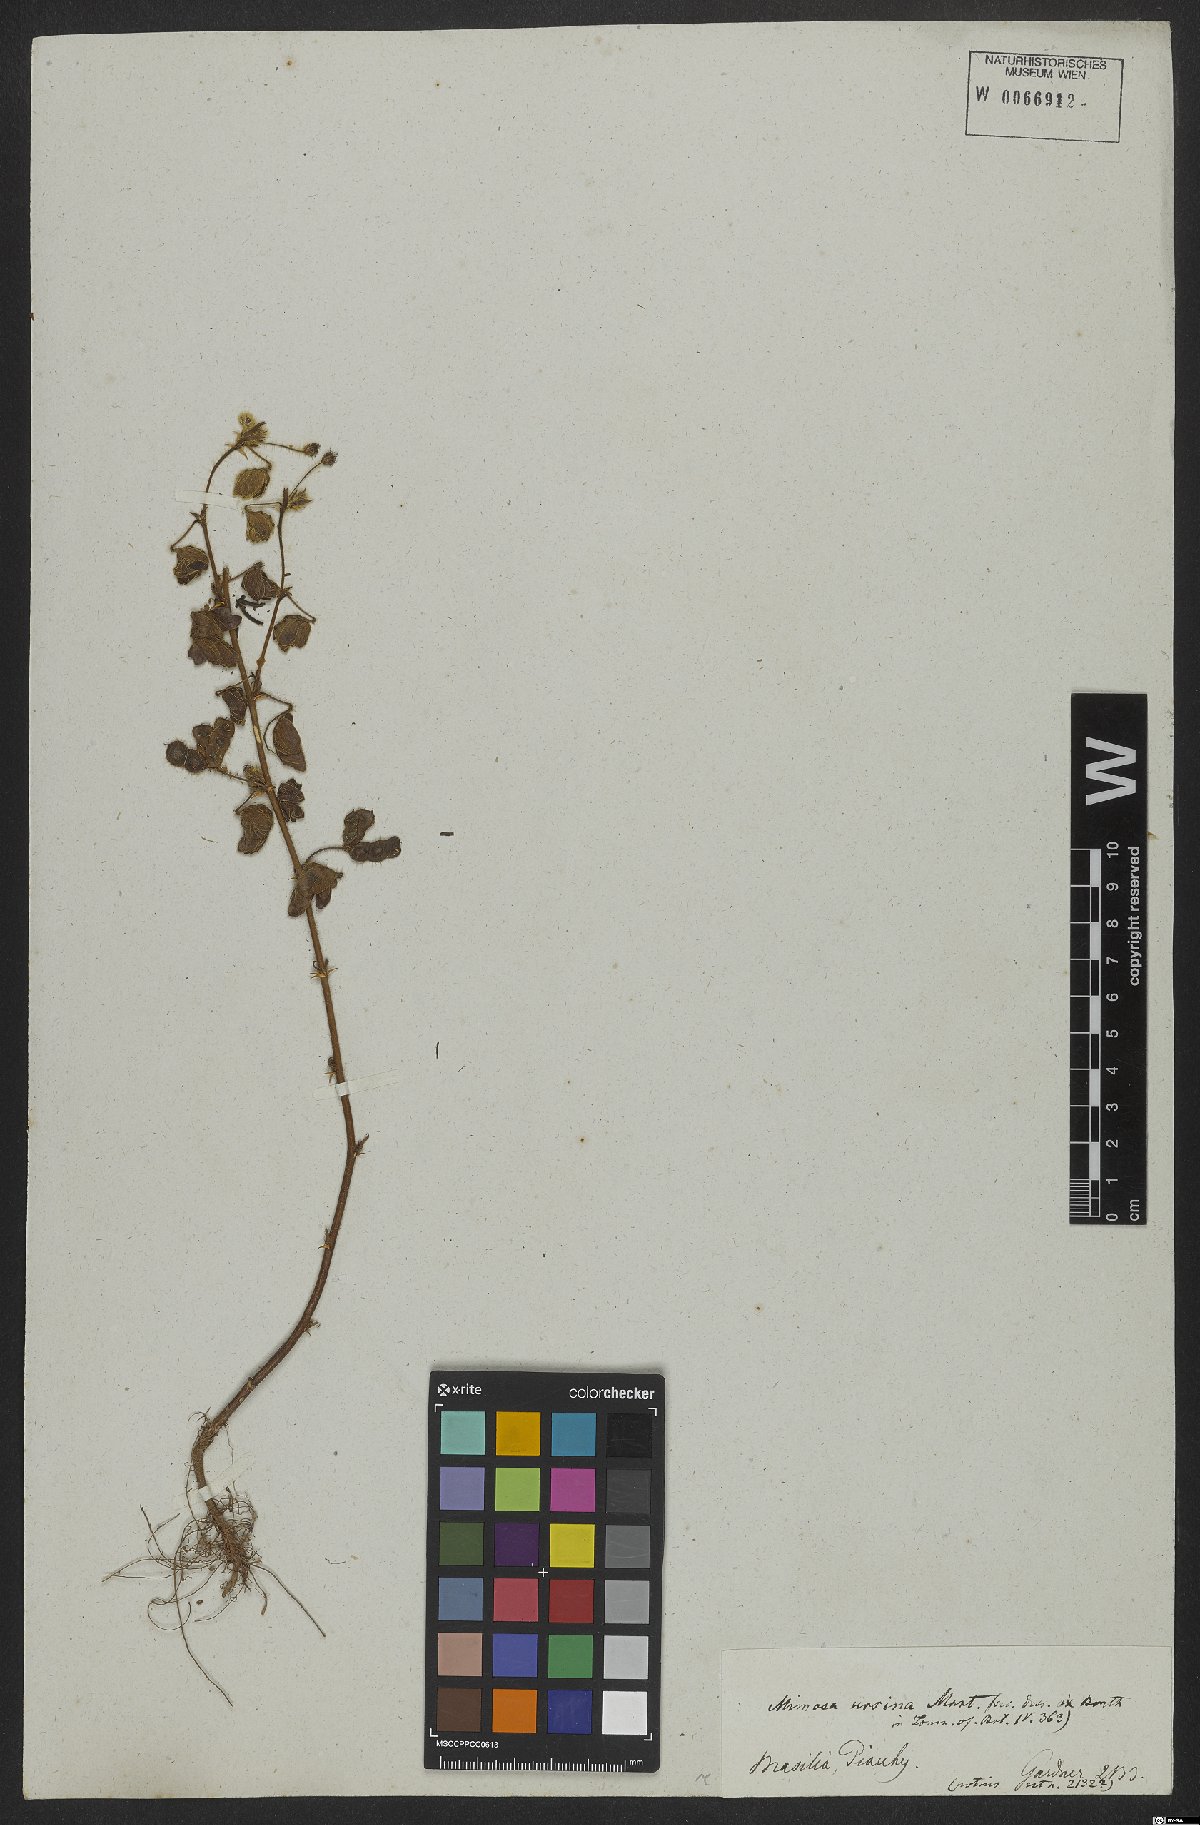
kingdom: Plantae
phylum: Tracheophyta
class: Magnoliopsida
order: Fabales
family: Fabaceae
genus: Mimosa
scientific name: Mimosa ursina
